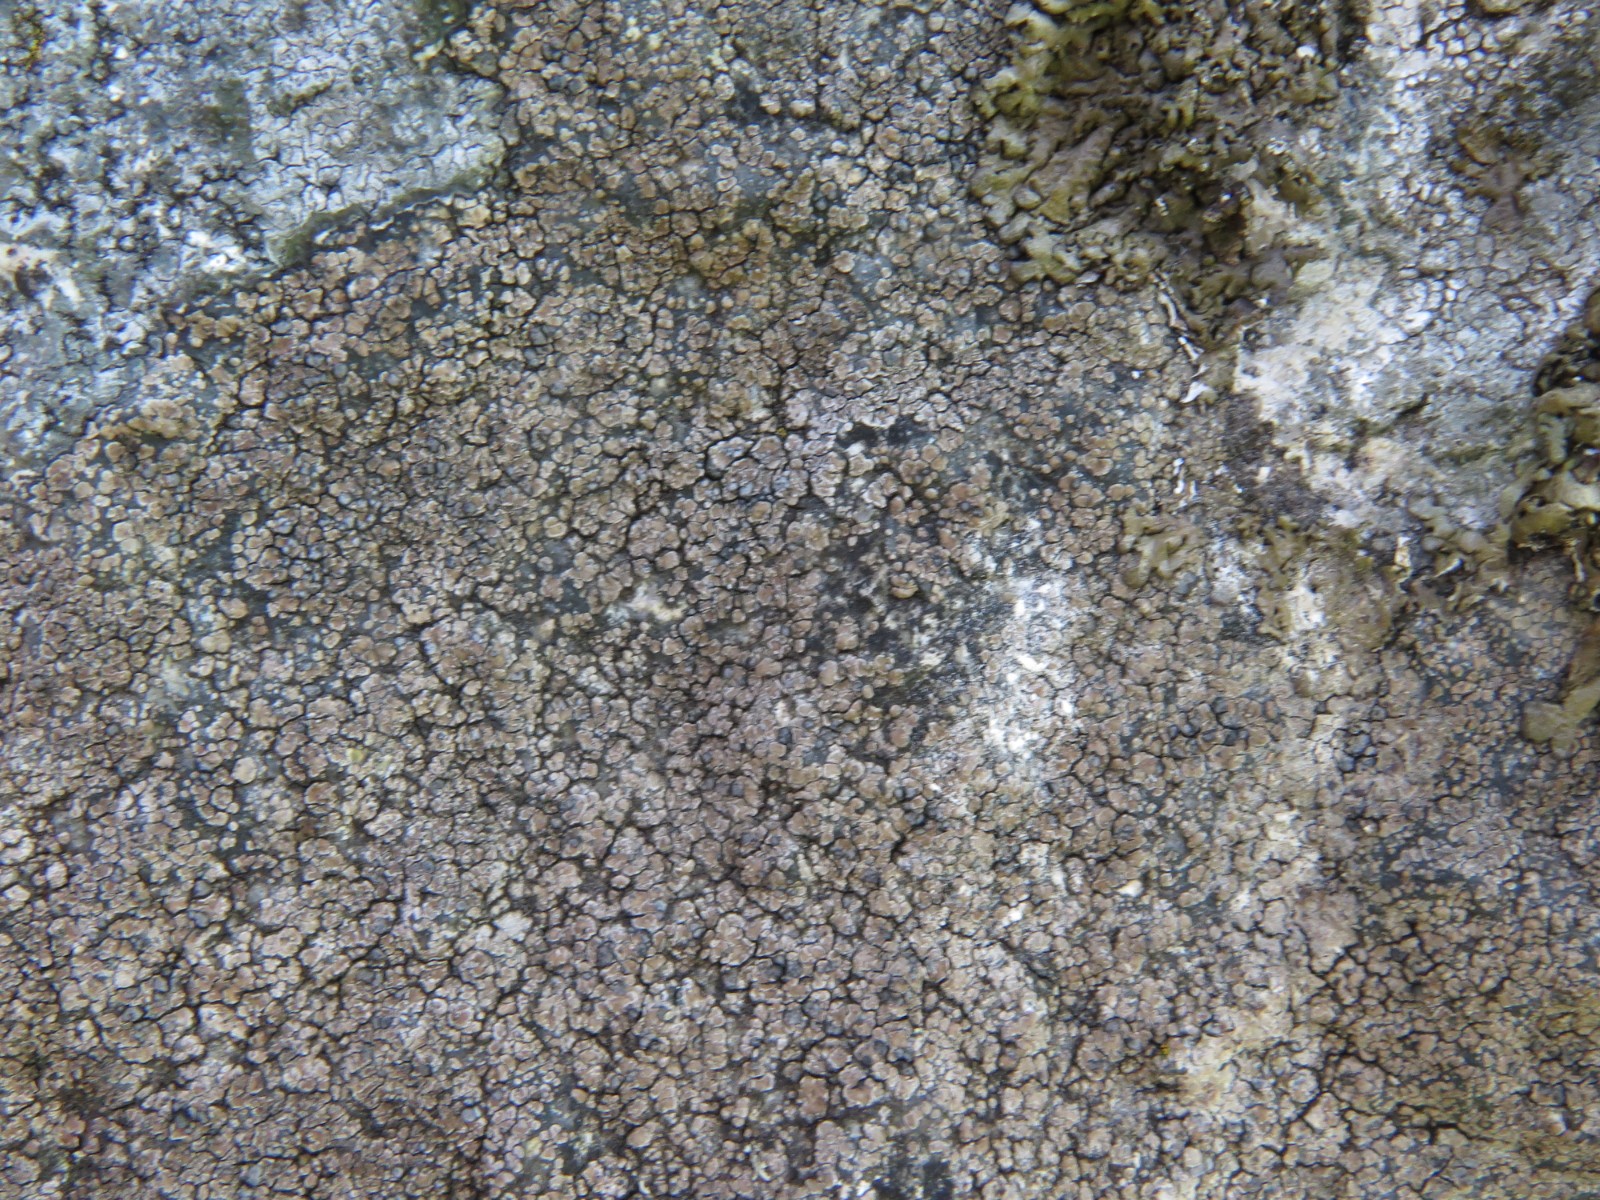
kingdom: Fungi
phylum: Ascomycota
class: Lecanoromycetes
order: Lecideales
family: Lecideaceae
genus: Lecidea
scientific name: Lecidea fuscoatra
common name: rudret skivelav
